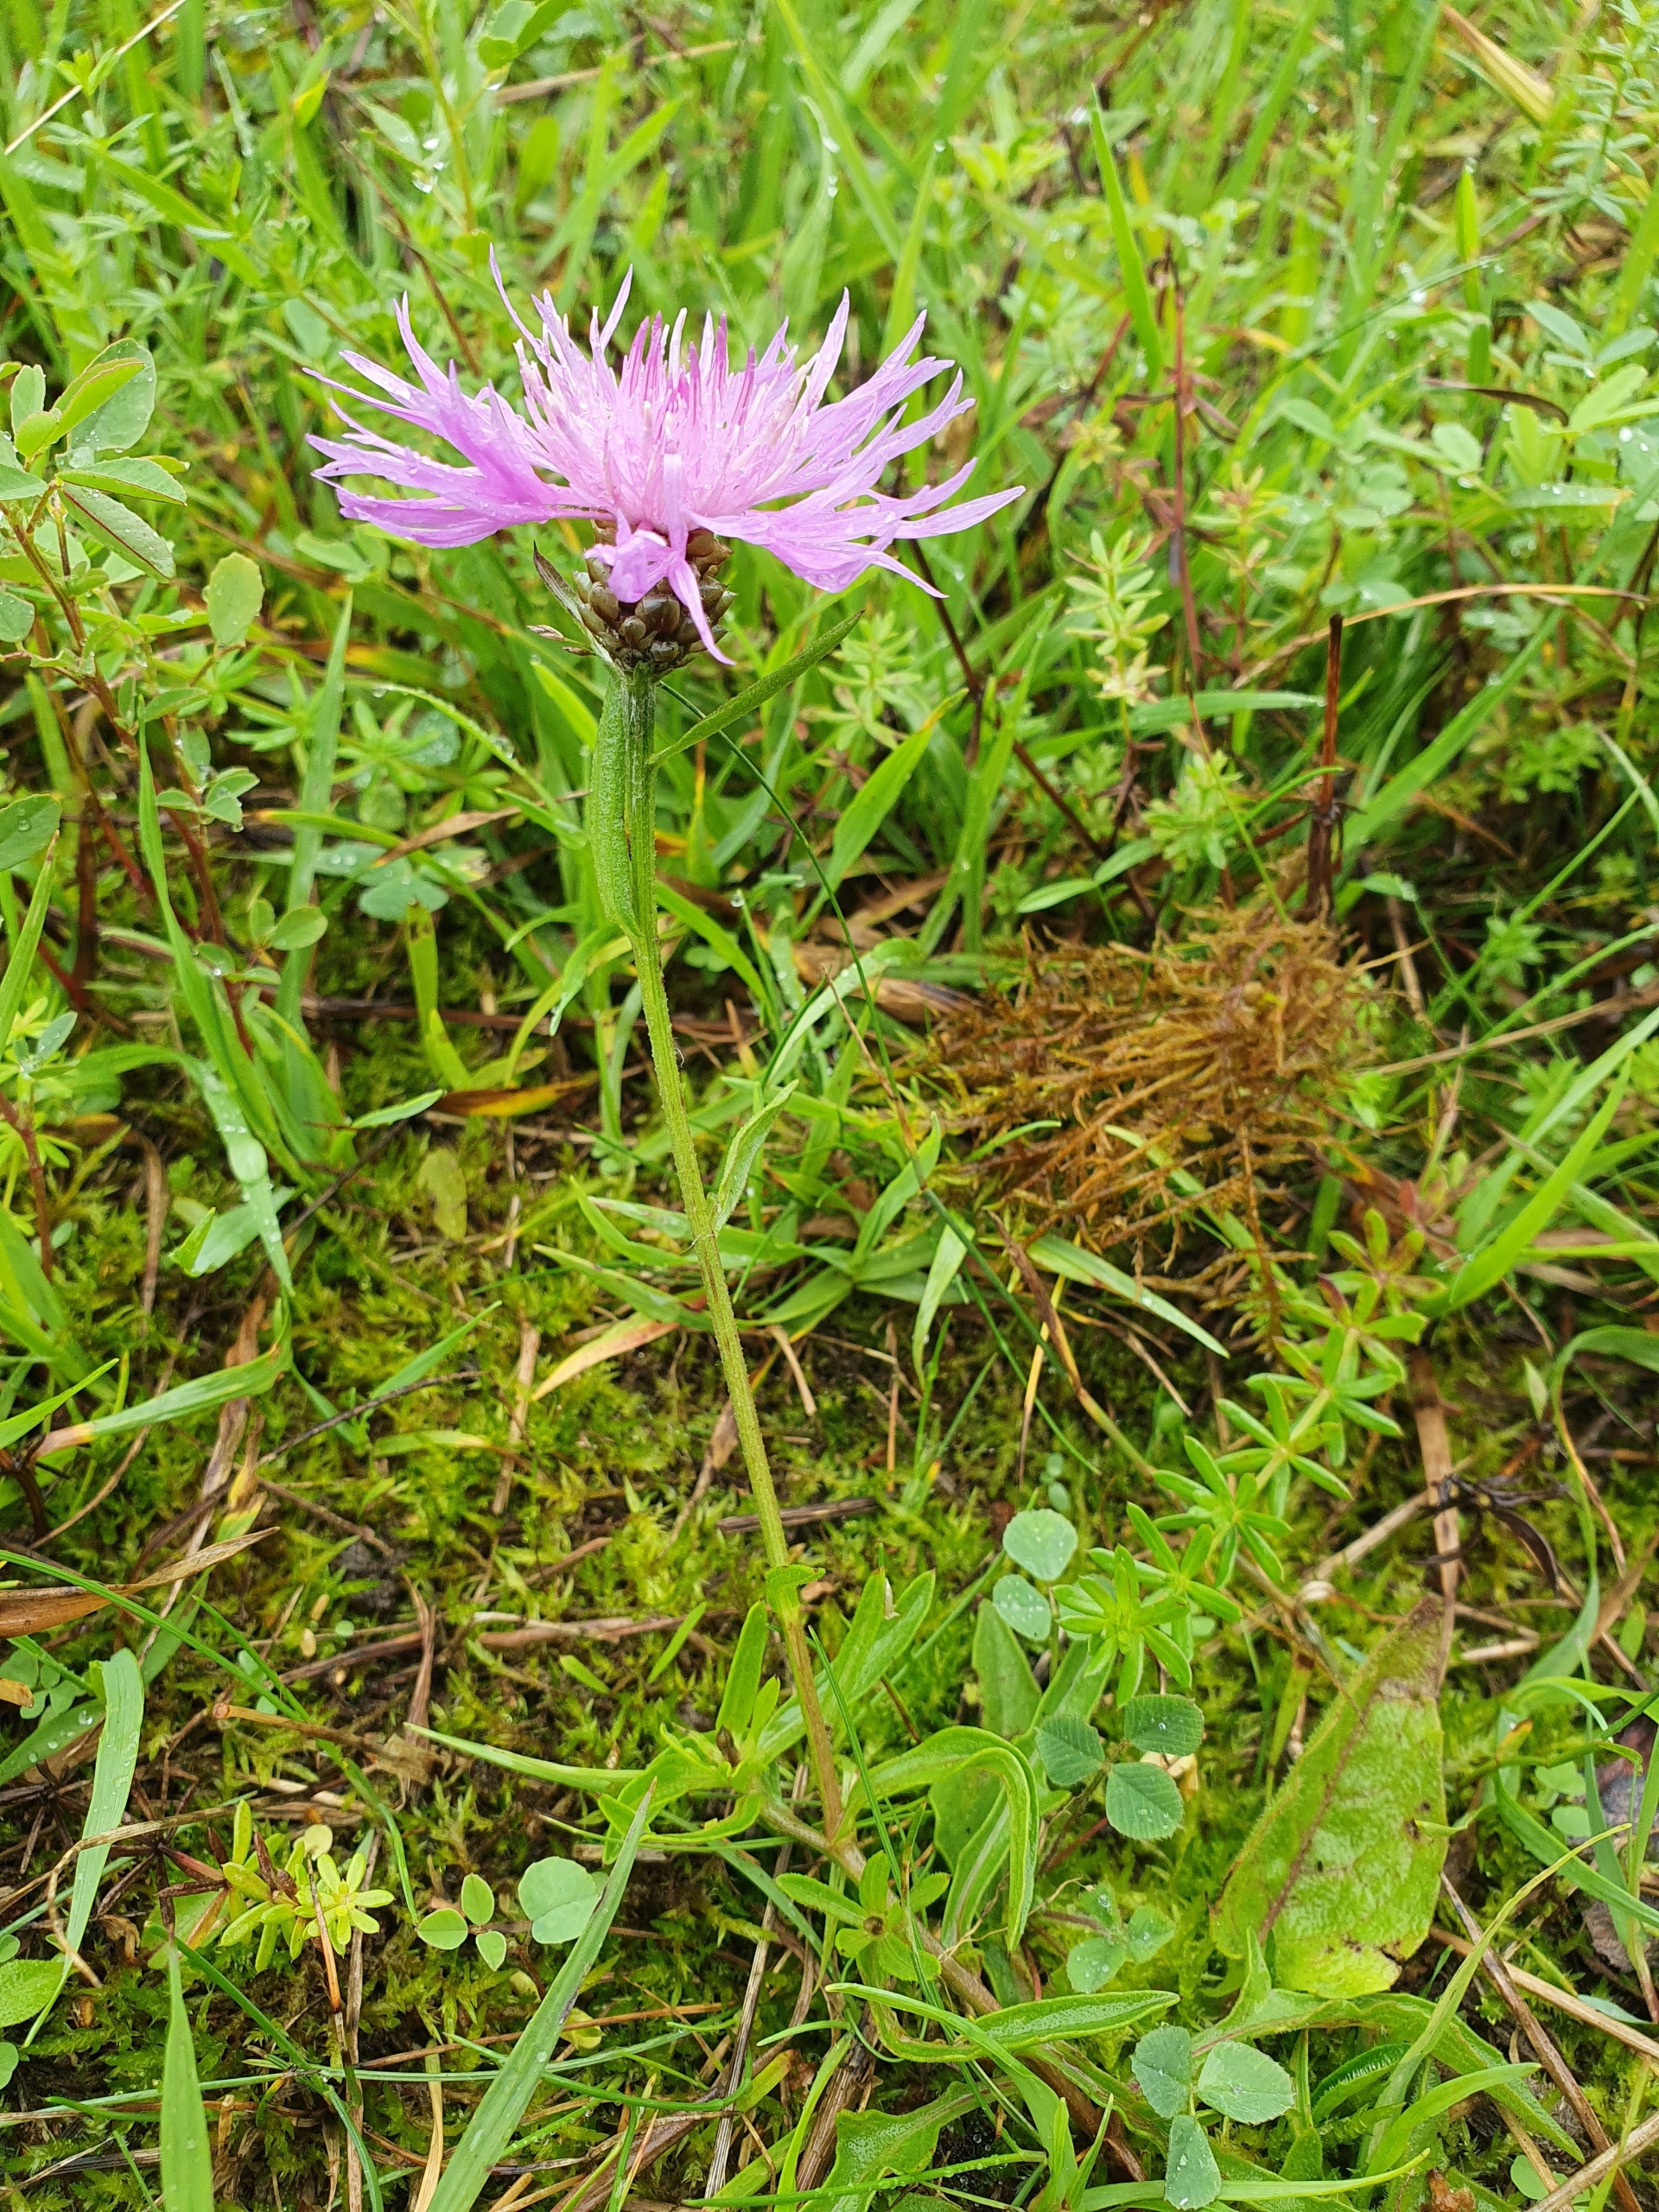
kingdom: Plantae
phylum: Tracheophyta
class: Magnoliopsida
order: Asterales
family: Asteraceae
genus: Centaurea
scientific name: Centaurea jacea
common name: Almindelig knopurt
